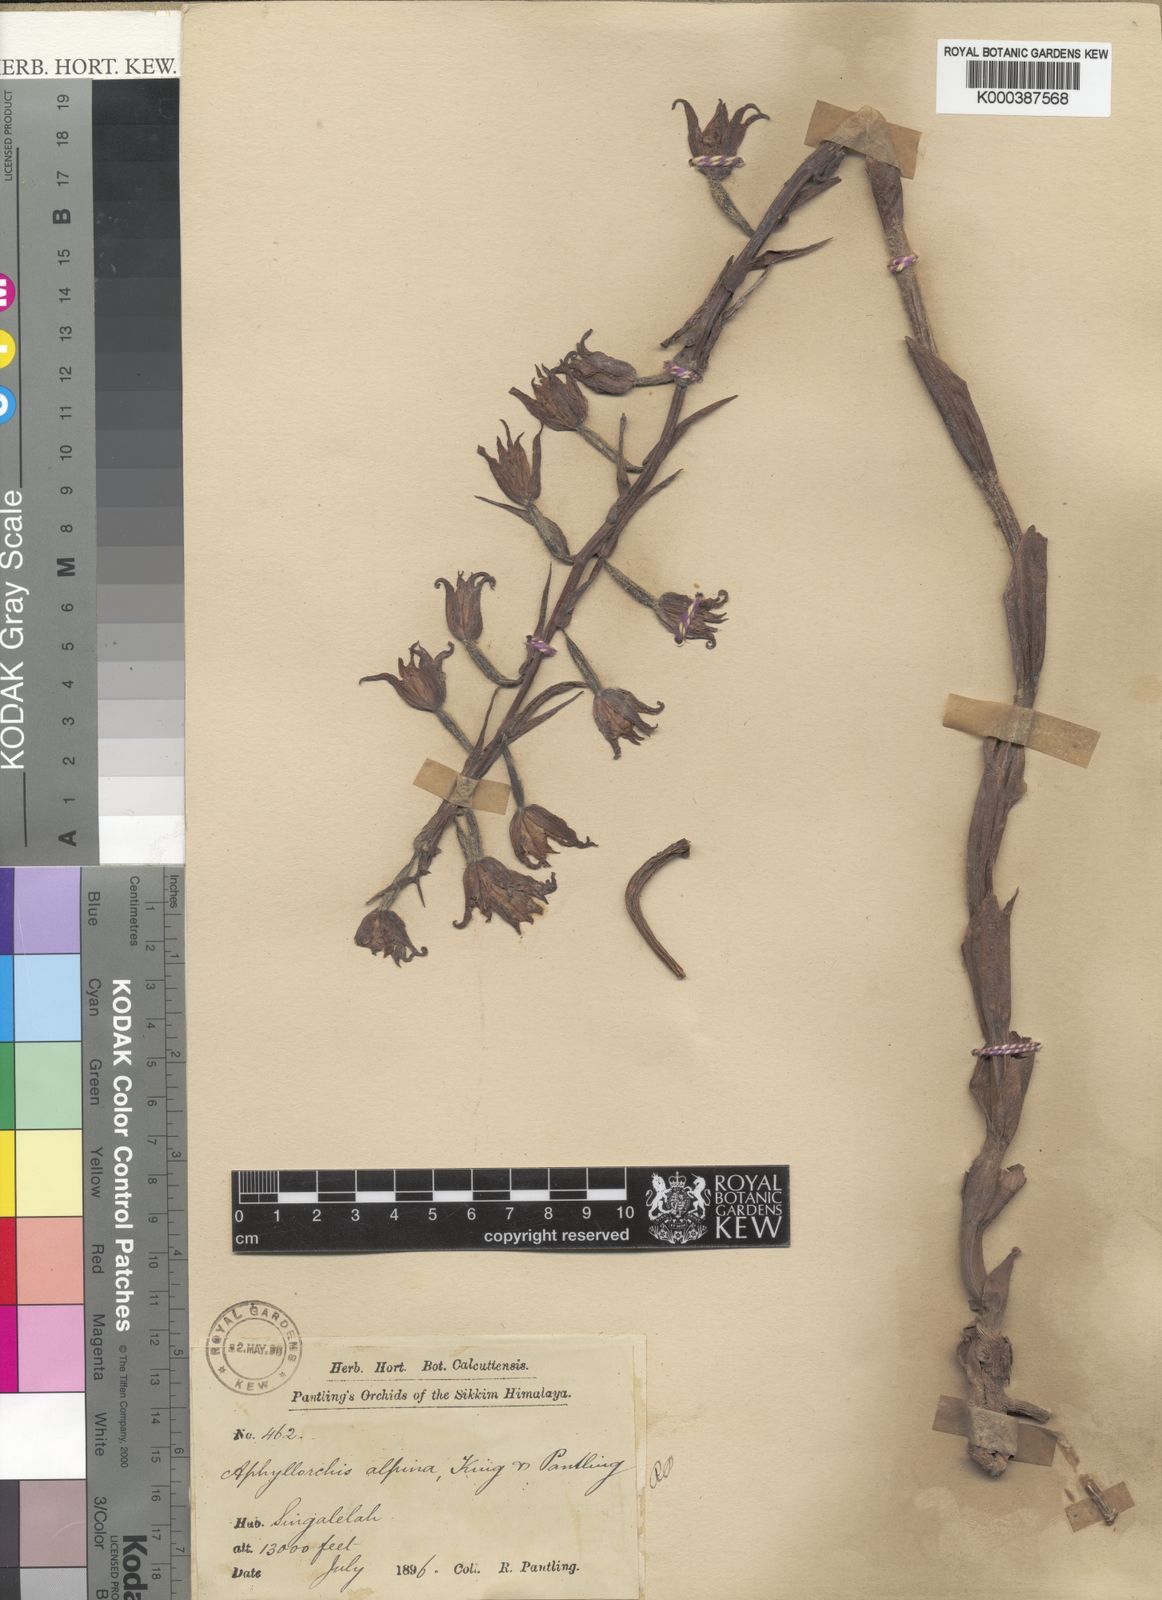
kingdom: Plantae
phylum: Tracheophyta
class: Liliopsida
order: Asparagales
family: Orchidaceae
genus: Aphyllorchis
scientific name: Aphyllorchis montana
